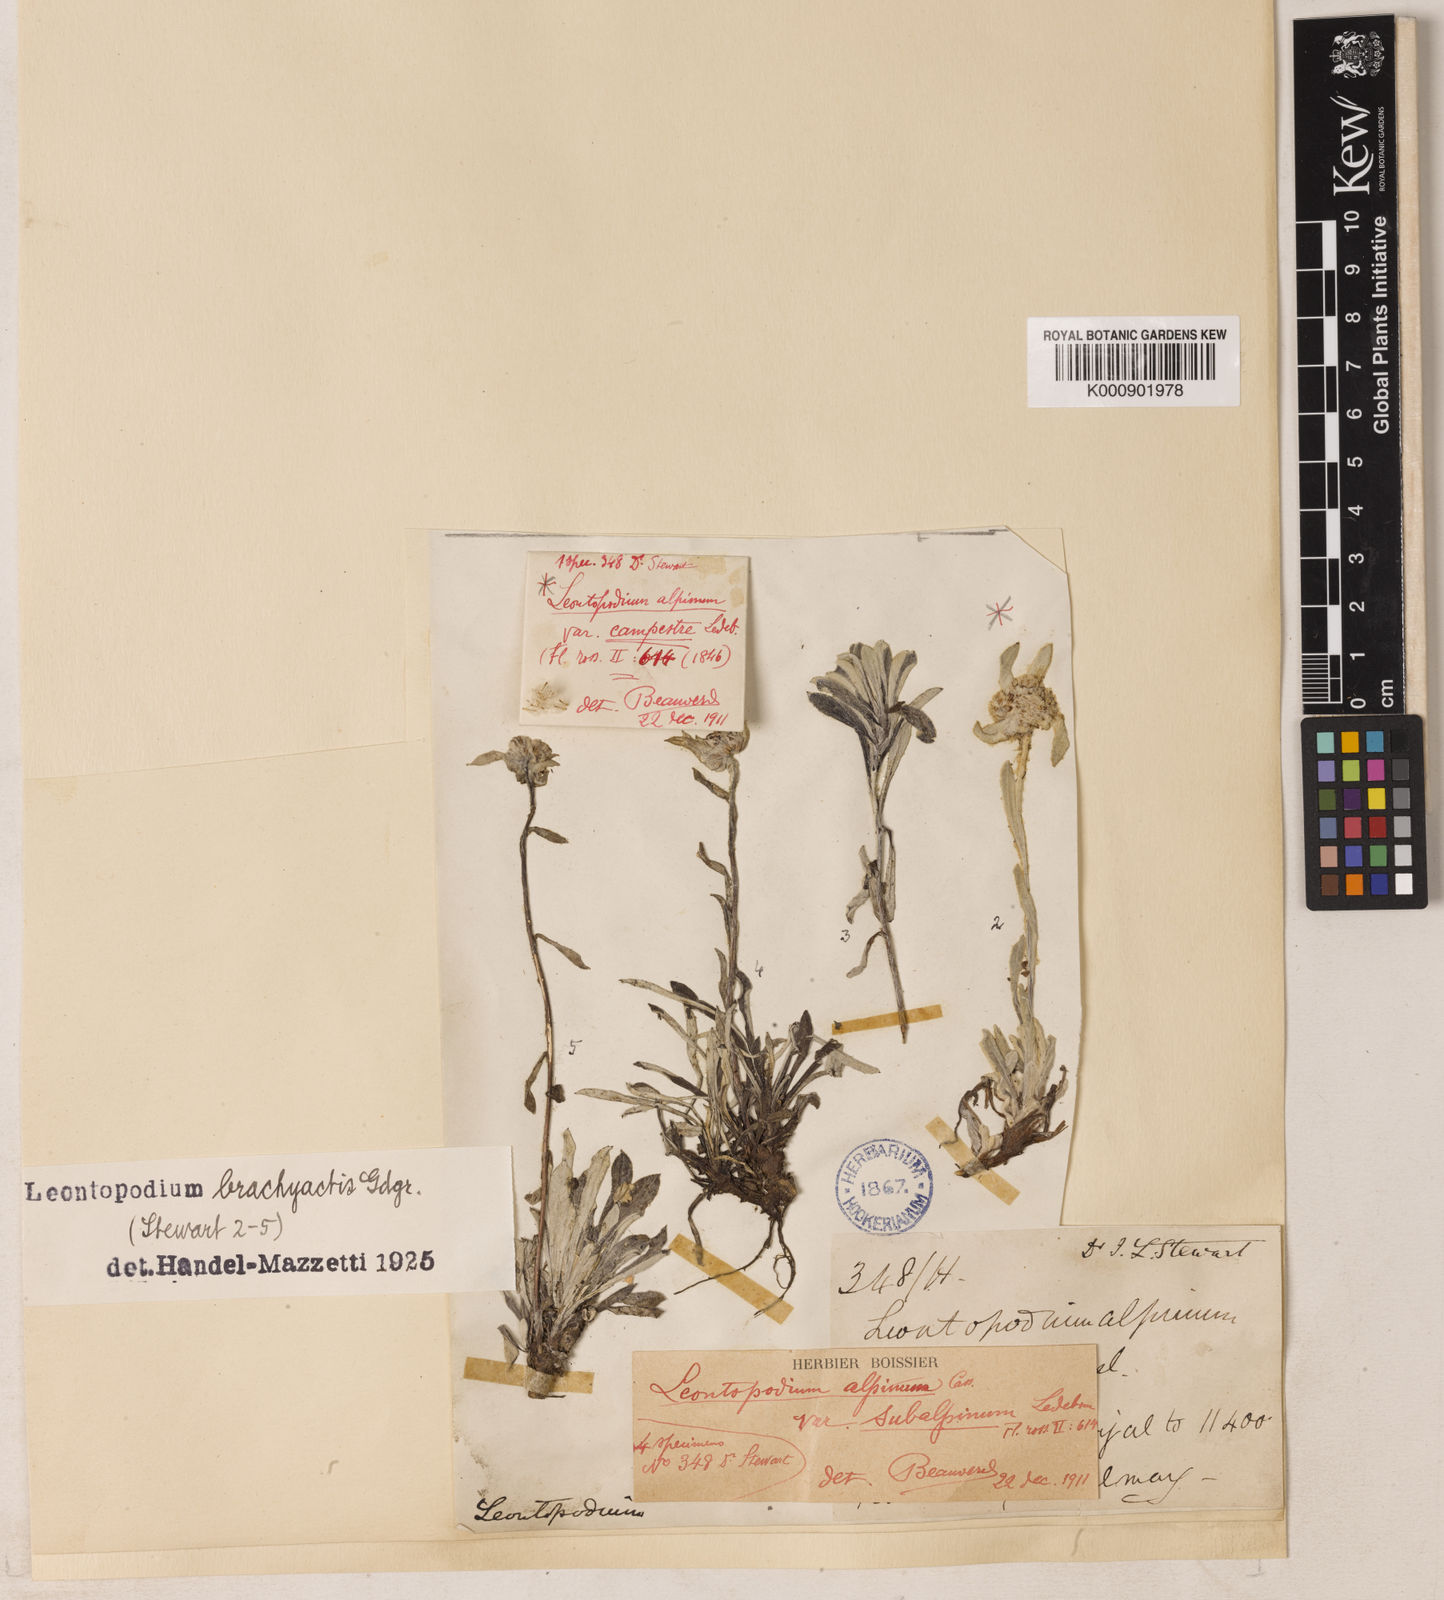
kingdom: Plantae
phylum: Tracheophyta
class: Magnoliopsida
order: Asterales
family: Asteraceae
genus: Leontopodium
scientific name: Leontopodium brachyactis
